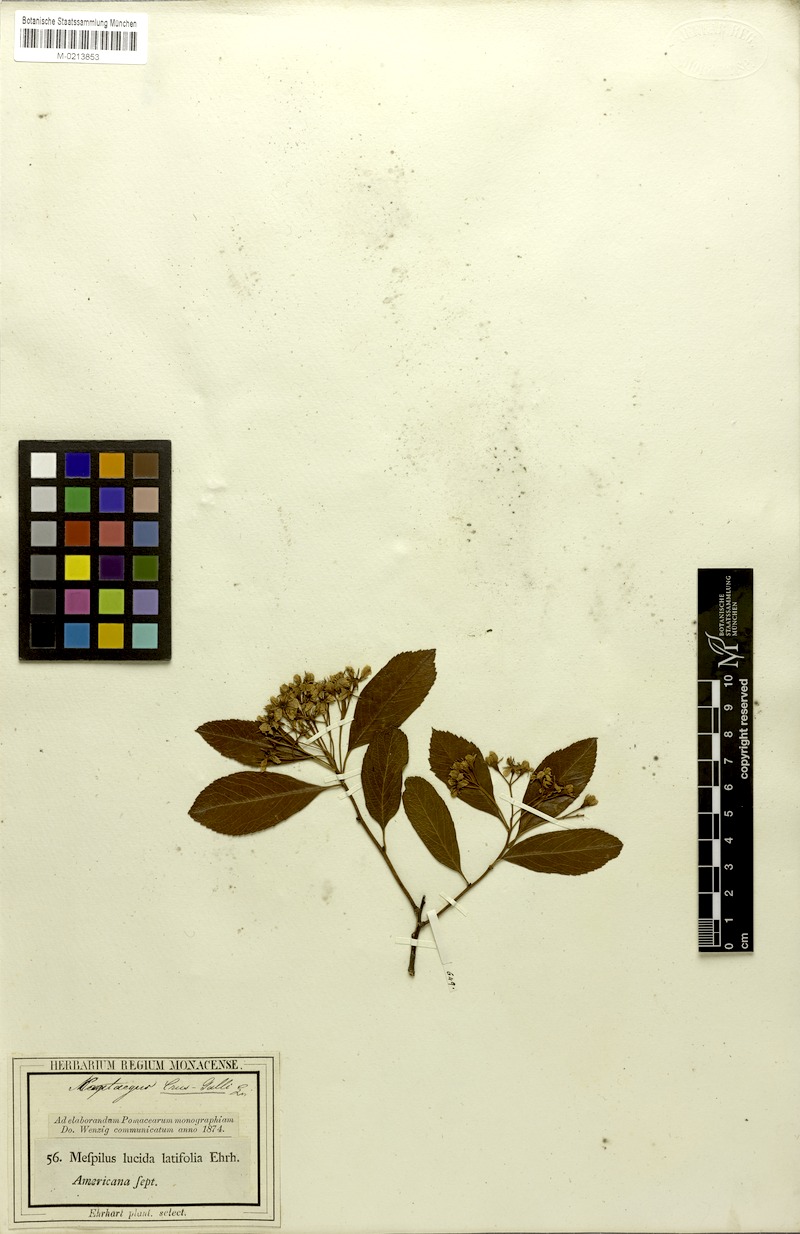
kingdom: Plantae
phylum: Tracheophyta
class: Magnoliopsida
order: Rosales
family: Rosaceae
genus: Crataegus
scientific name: Crataegus crus-galli
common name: Cockspurthorn
